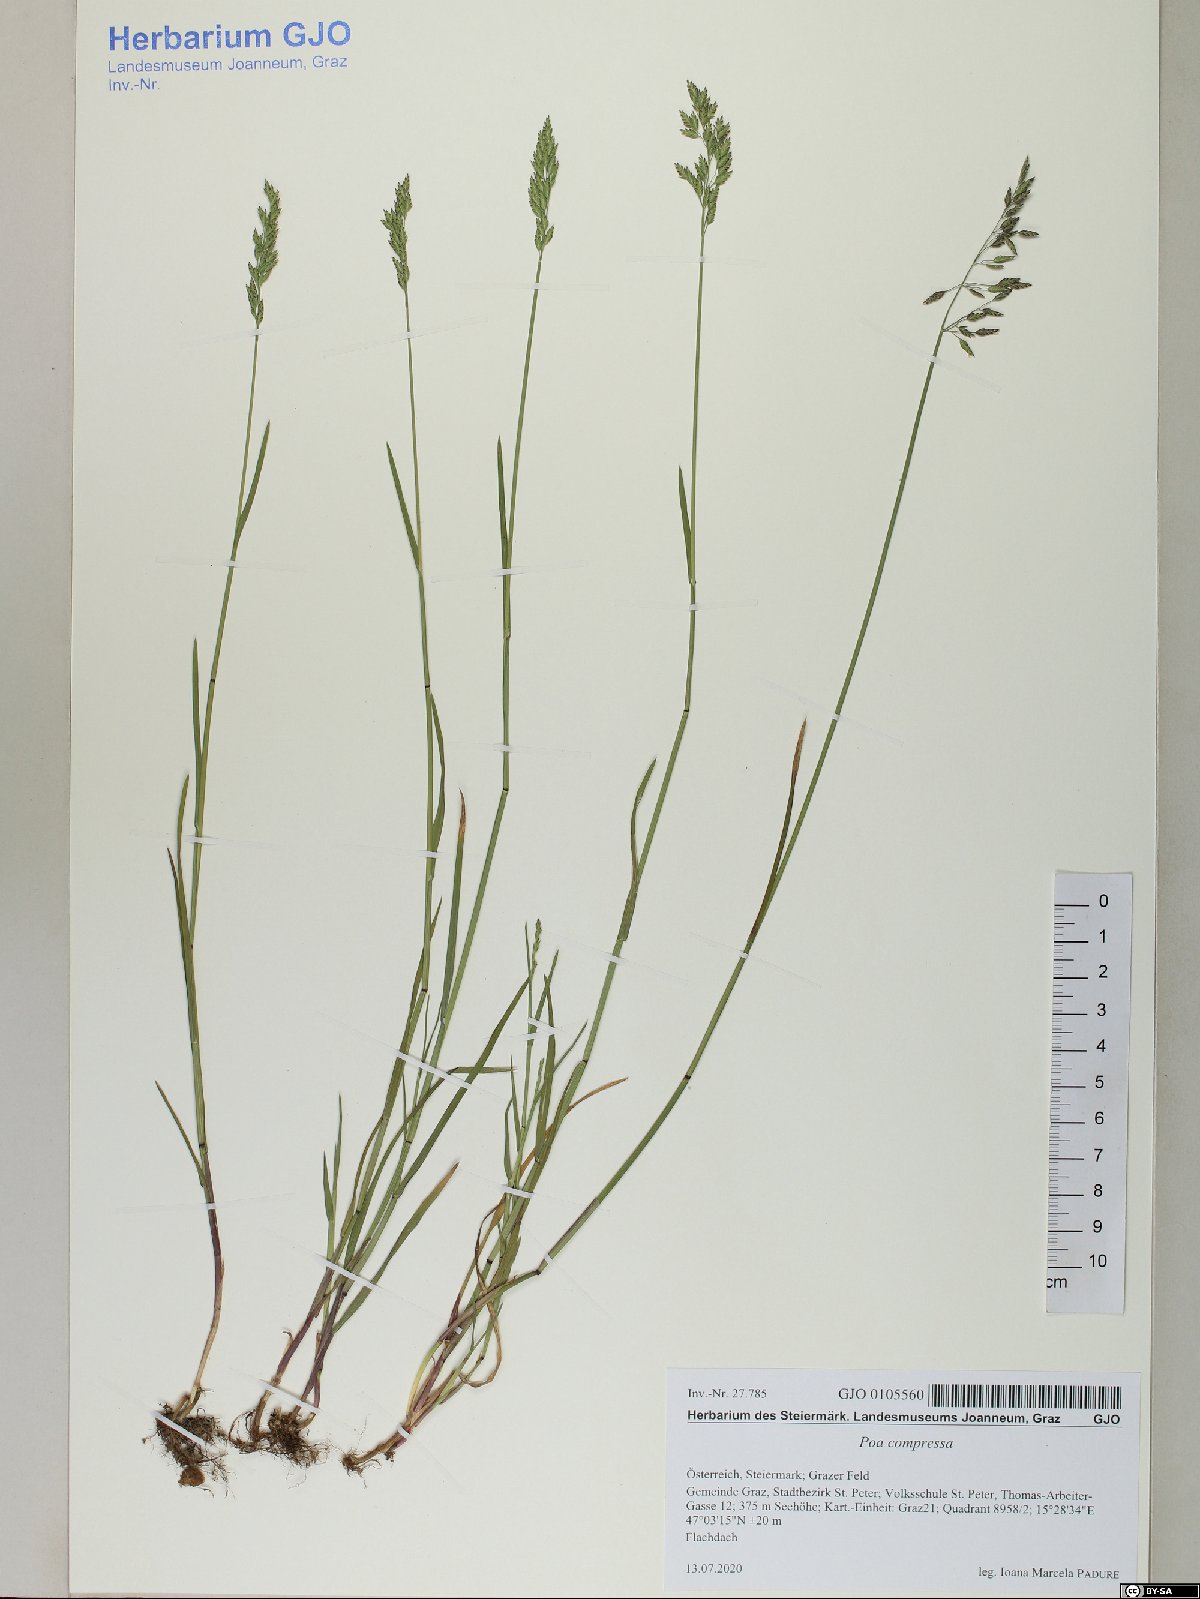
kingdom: Plantae
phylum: Tracheophyta
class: Liliopsida
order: Poales
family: Poaceae
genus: Poa
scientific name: Poa compressa
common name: Canada bluegrass
